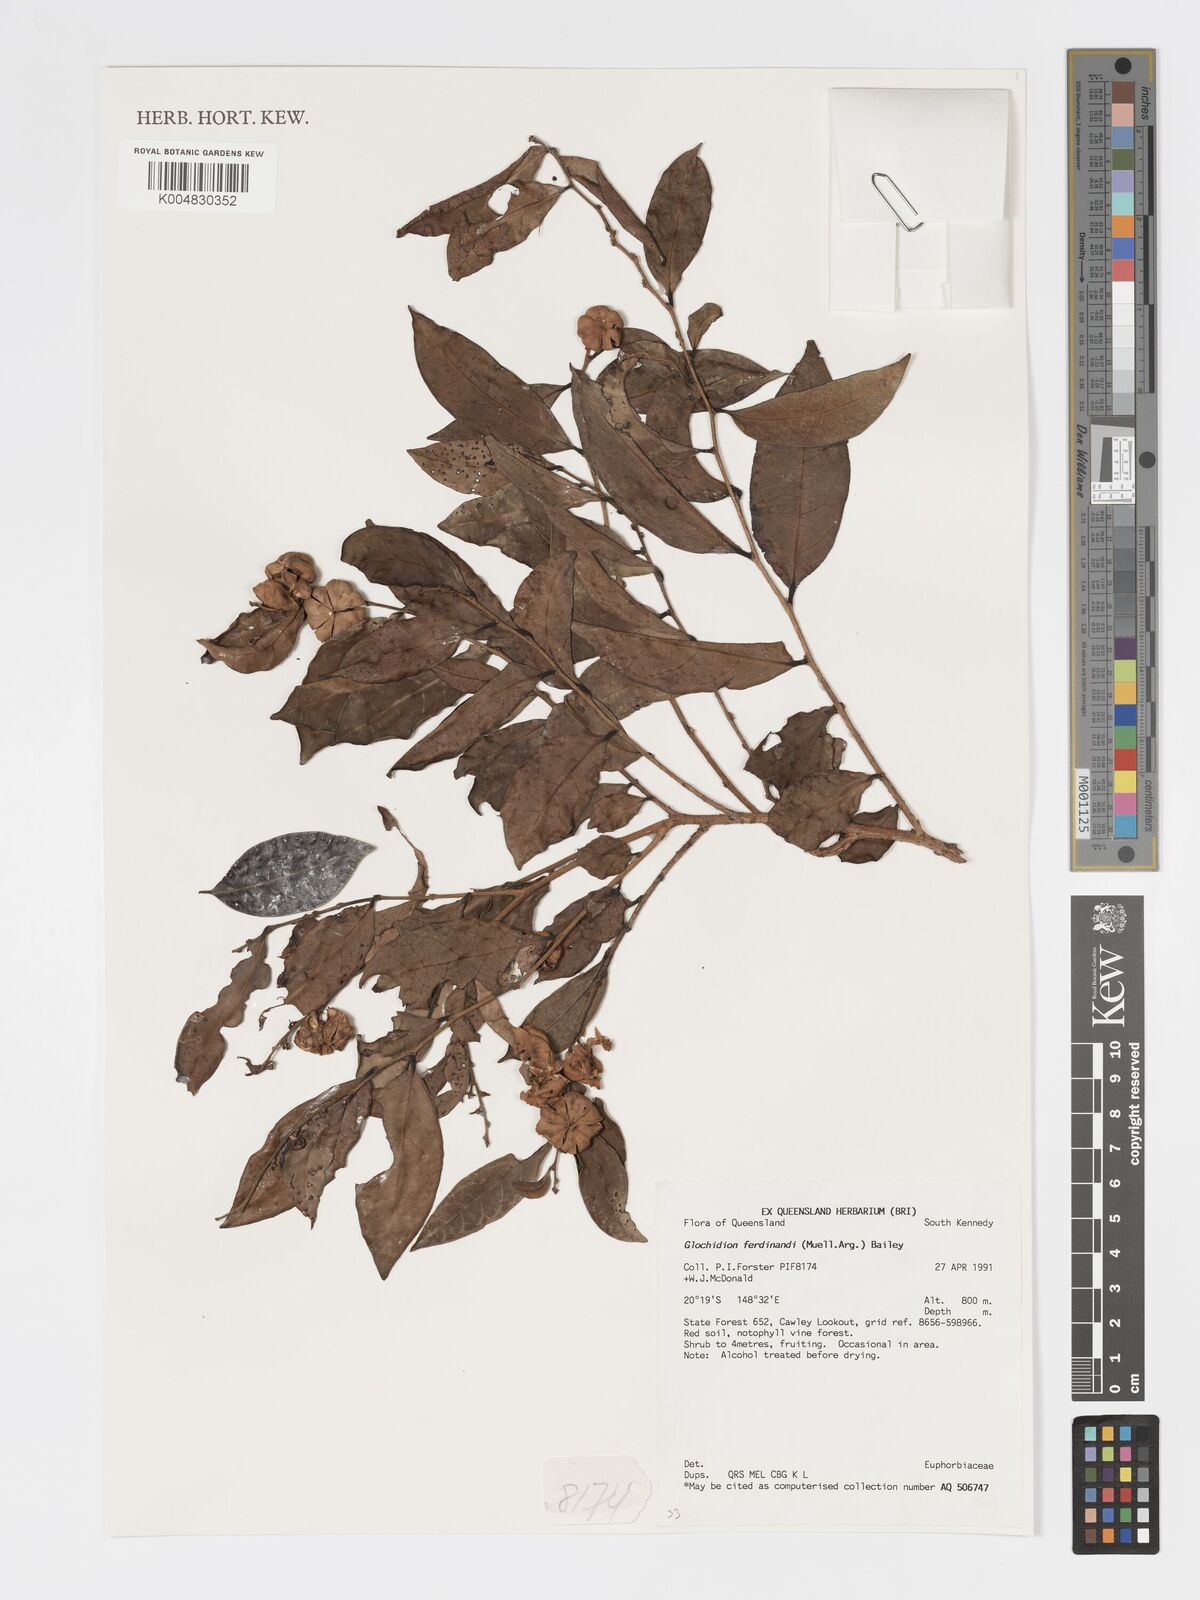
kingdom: Plantae
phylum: Tracheophyta
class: Magnoliopsida
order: Malpighiales
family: Phyllanthaceae
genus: Glochidion
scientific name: Glochidion ferdinandi
